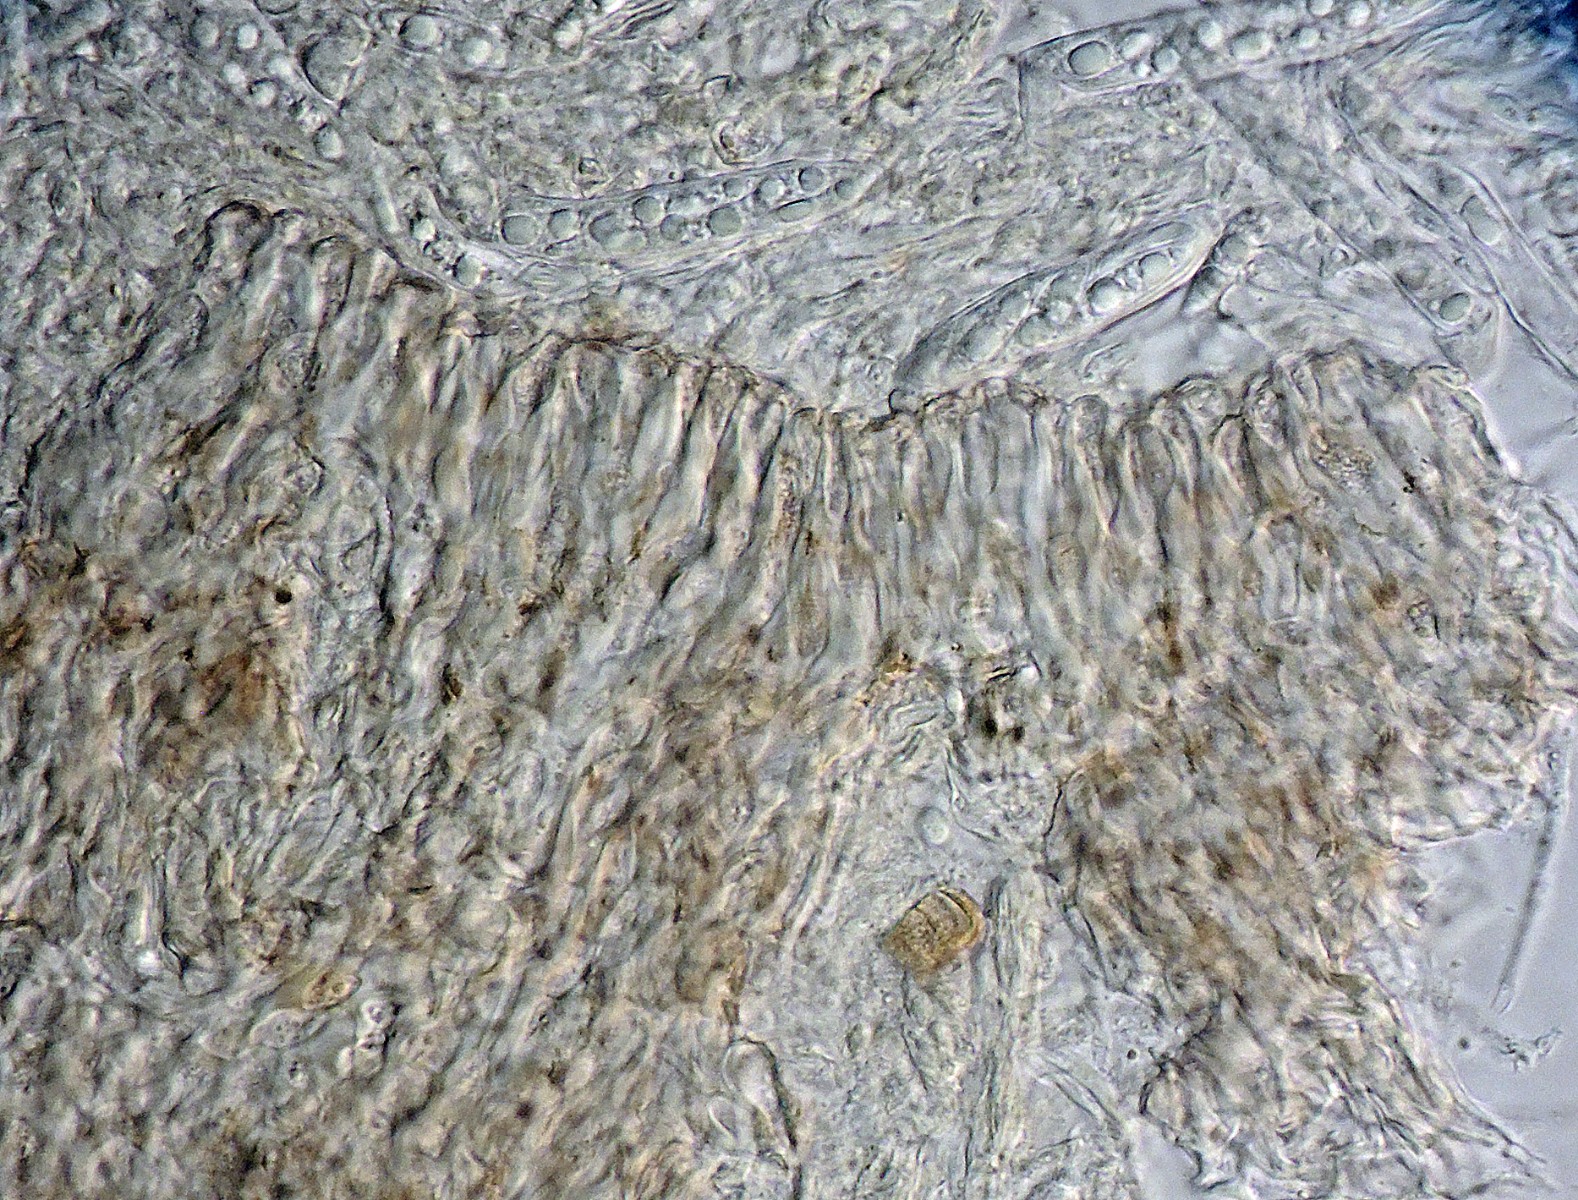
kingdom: Fungi
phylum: Ascomycota
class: Leotiomycetes
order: Helotiales
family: Pezizellaceae
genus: Micropeziza
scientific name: Micropeziza umbrinella
